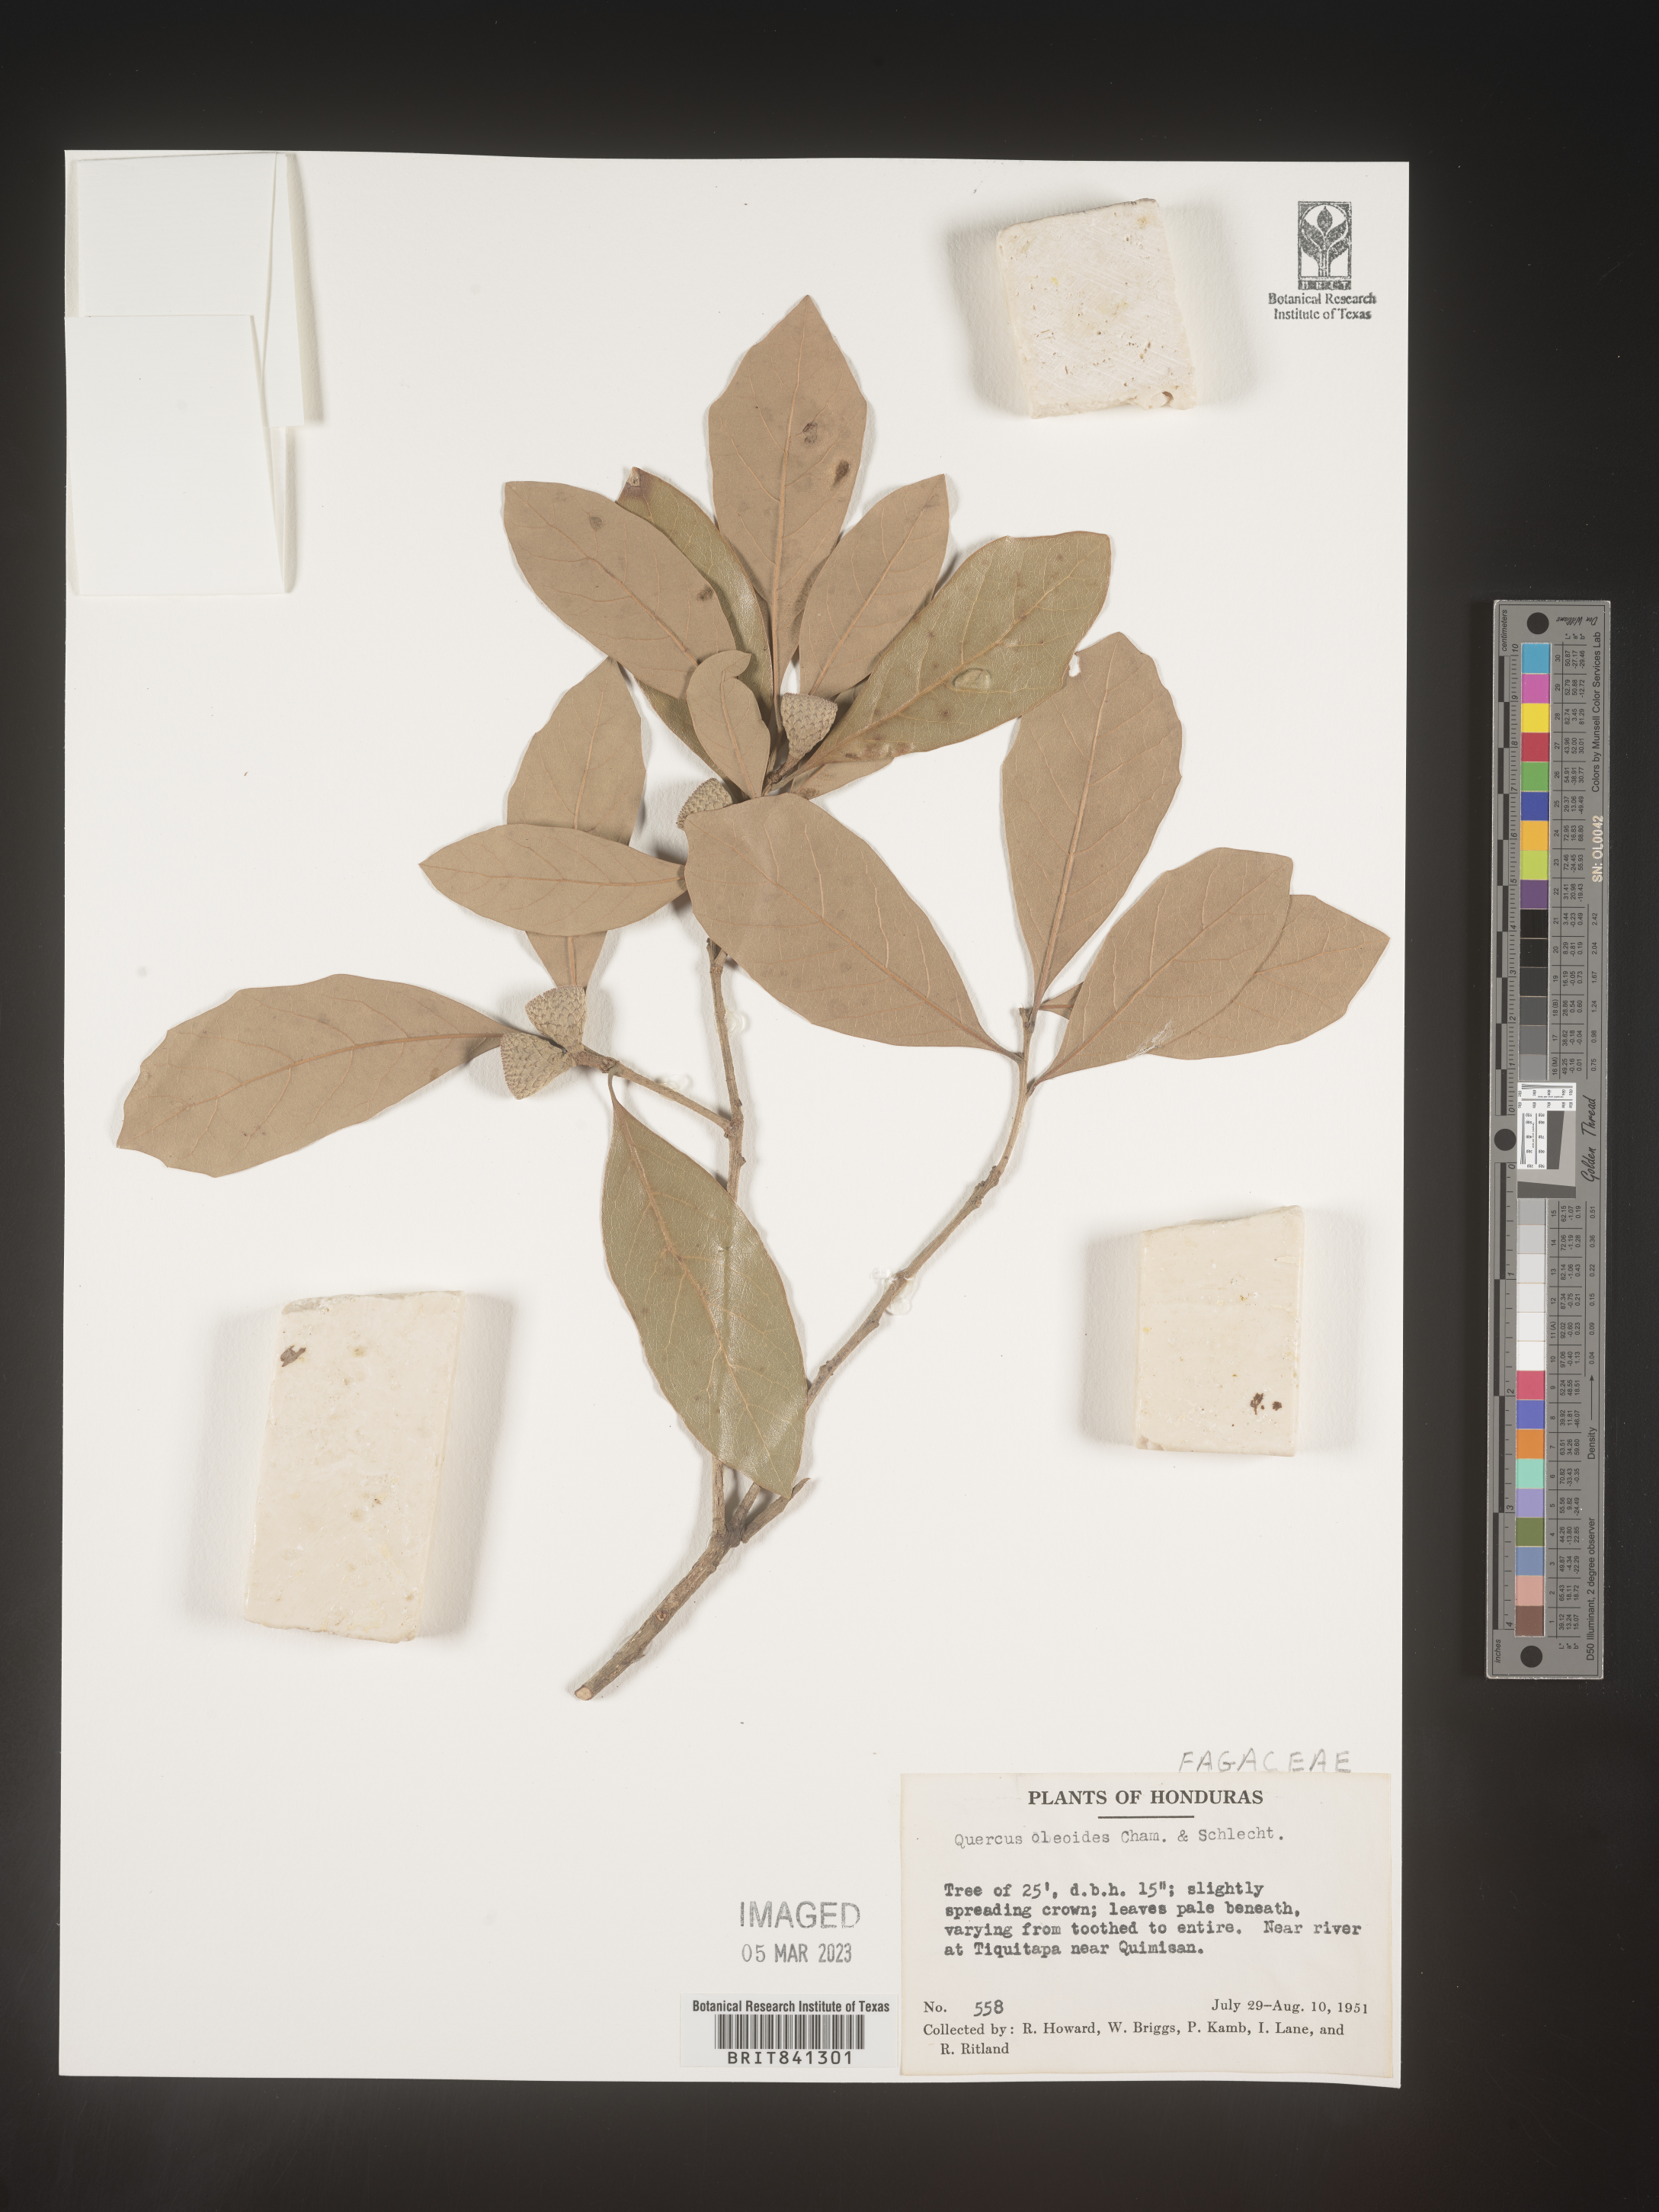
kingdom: Plantae
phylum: Tracheophyta
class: Magnoliopsida
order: Fagales
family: Fagaceae
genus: Quercus
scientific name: Quercus oleoides
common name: White oak
